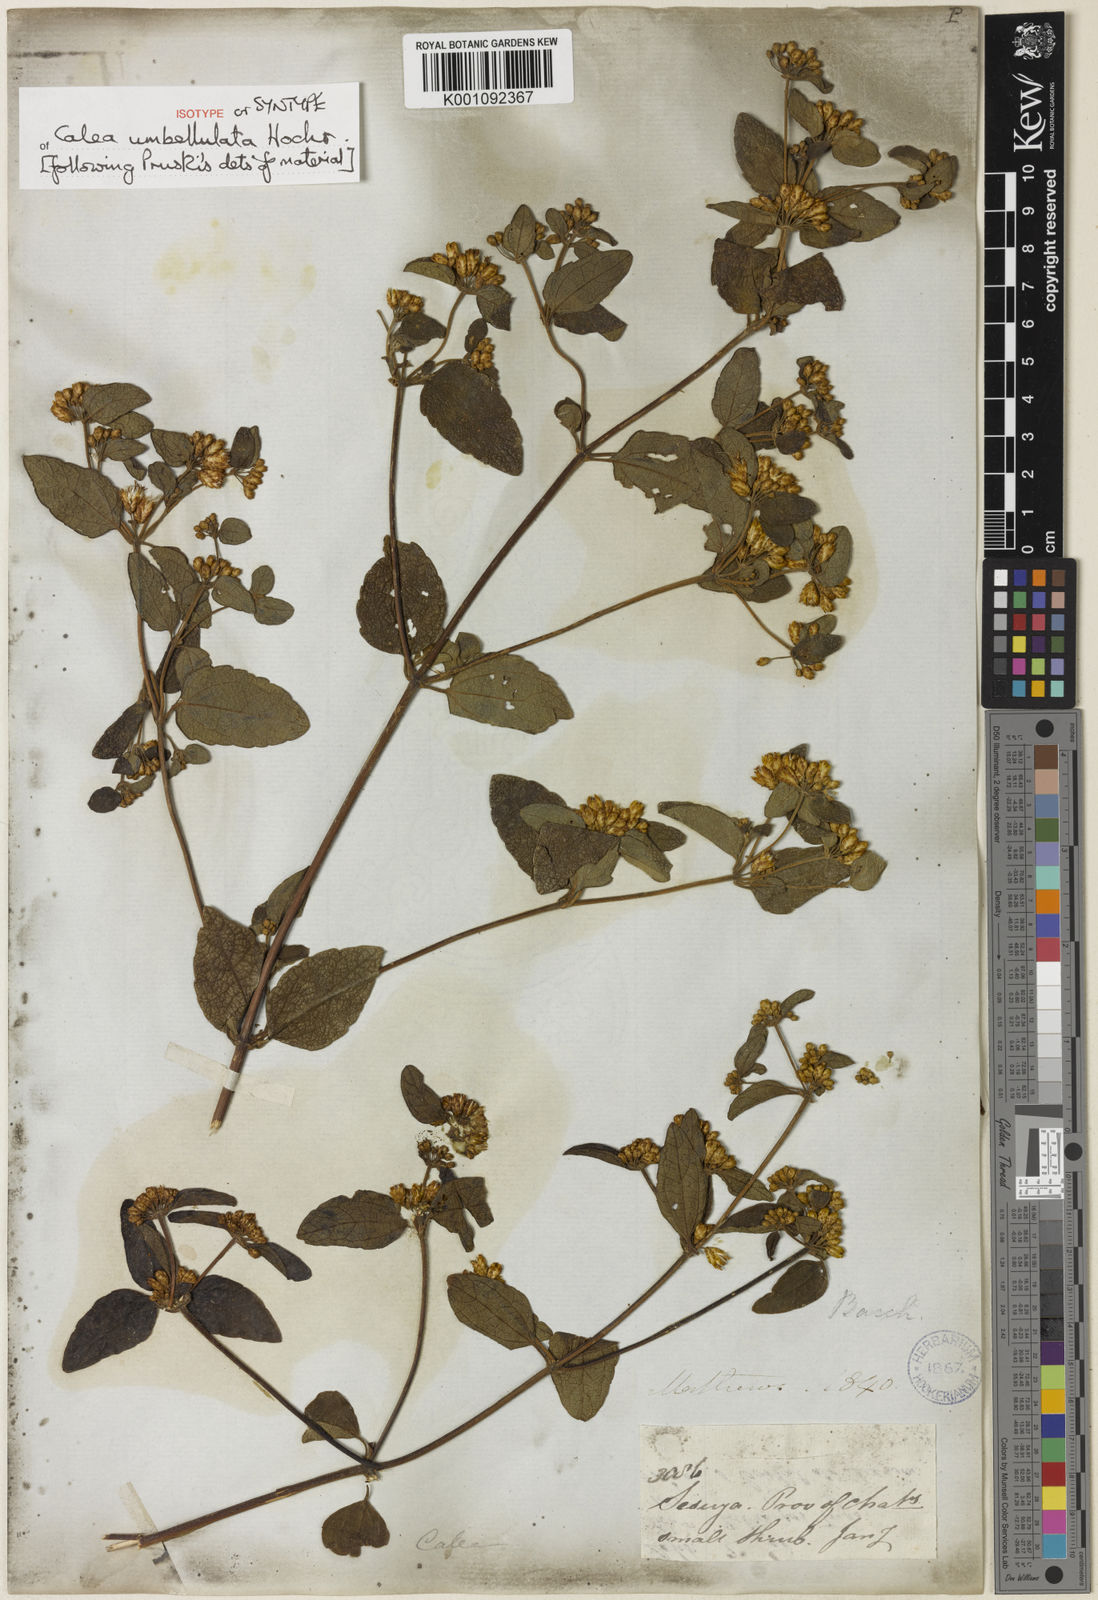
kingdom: Plantae
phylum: Tracheophyta
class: Magnoliopsida
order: Asterales
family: Asteraceae
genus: Calea
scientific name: Calea umbellulata
